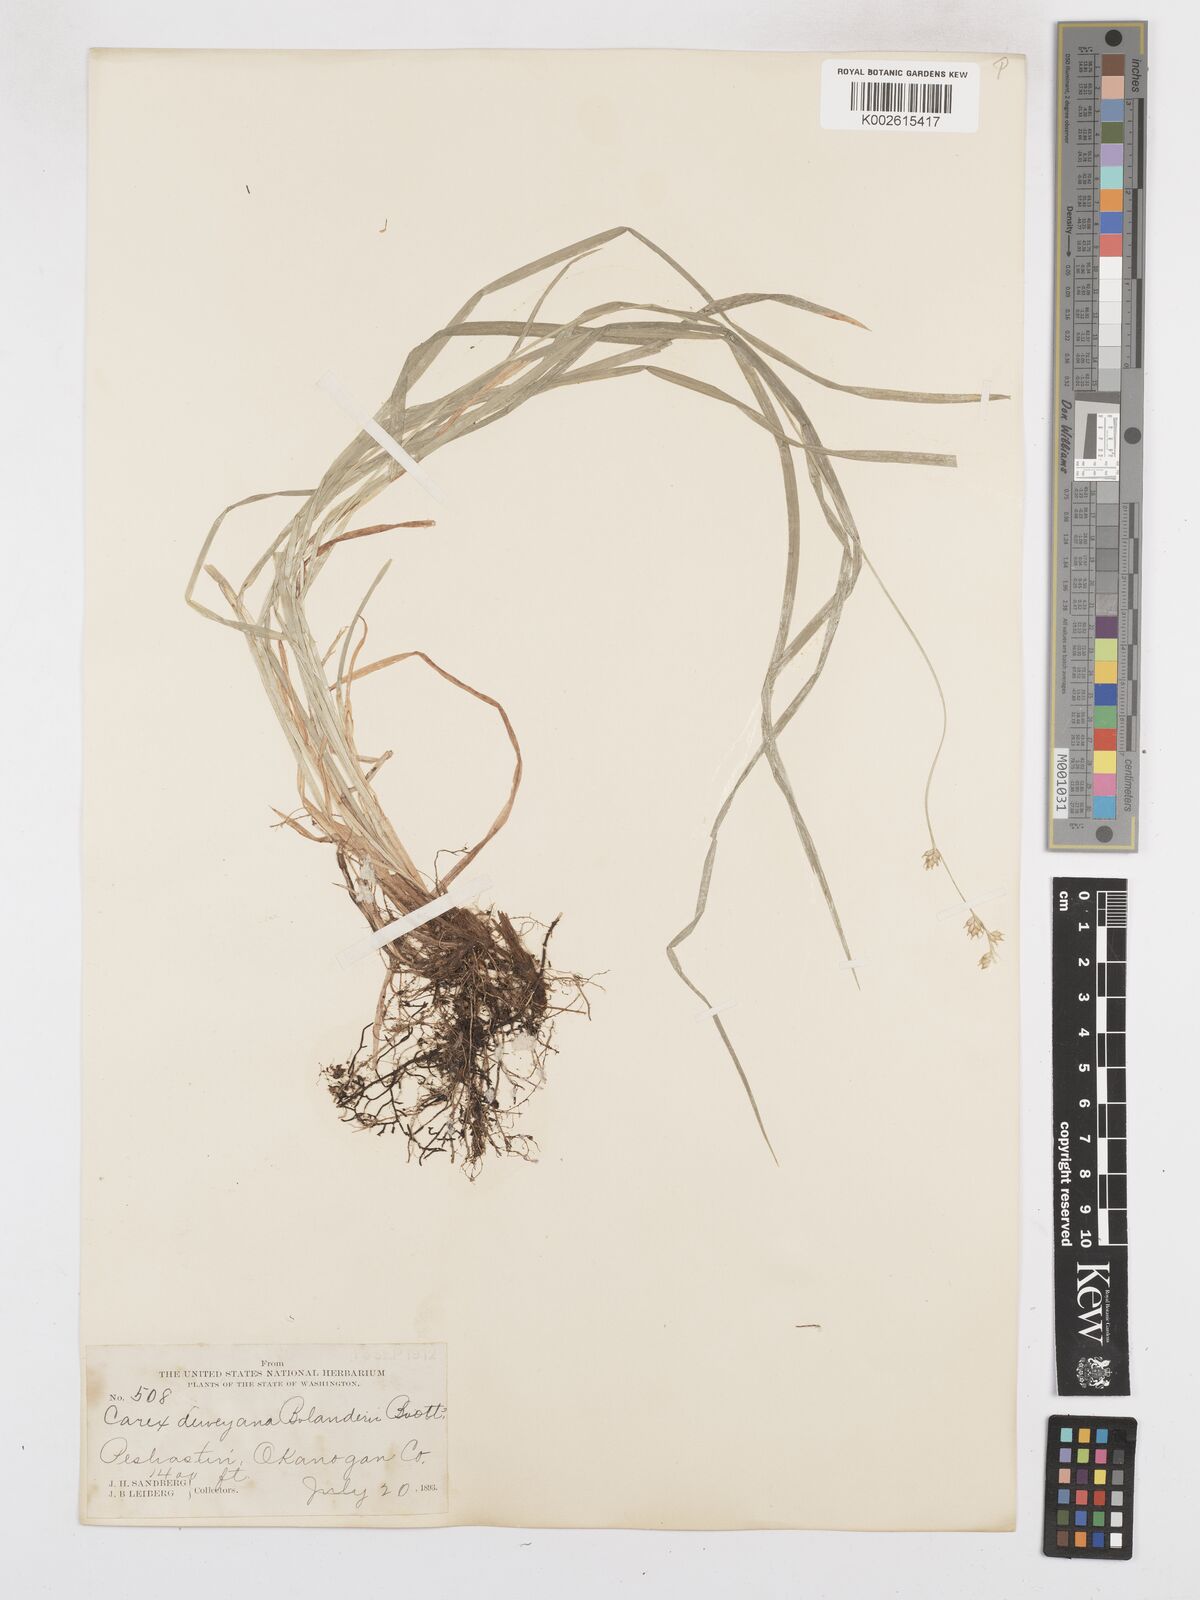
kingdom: Plantae
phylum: Tracheophyta
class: Liliopsida
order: Poales
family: Cyperaceae
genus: Carex
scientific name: Carex bolanderi
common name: Bolander's sedge
